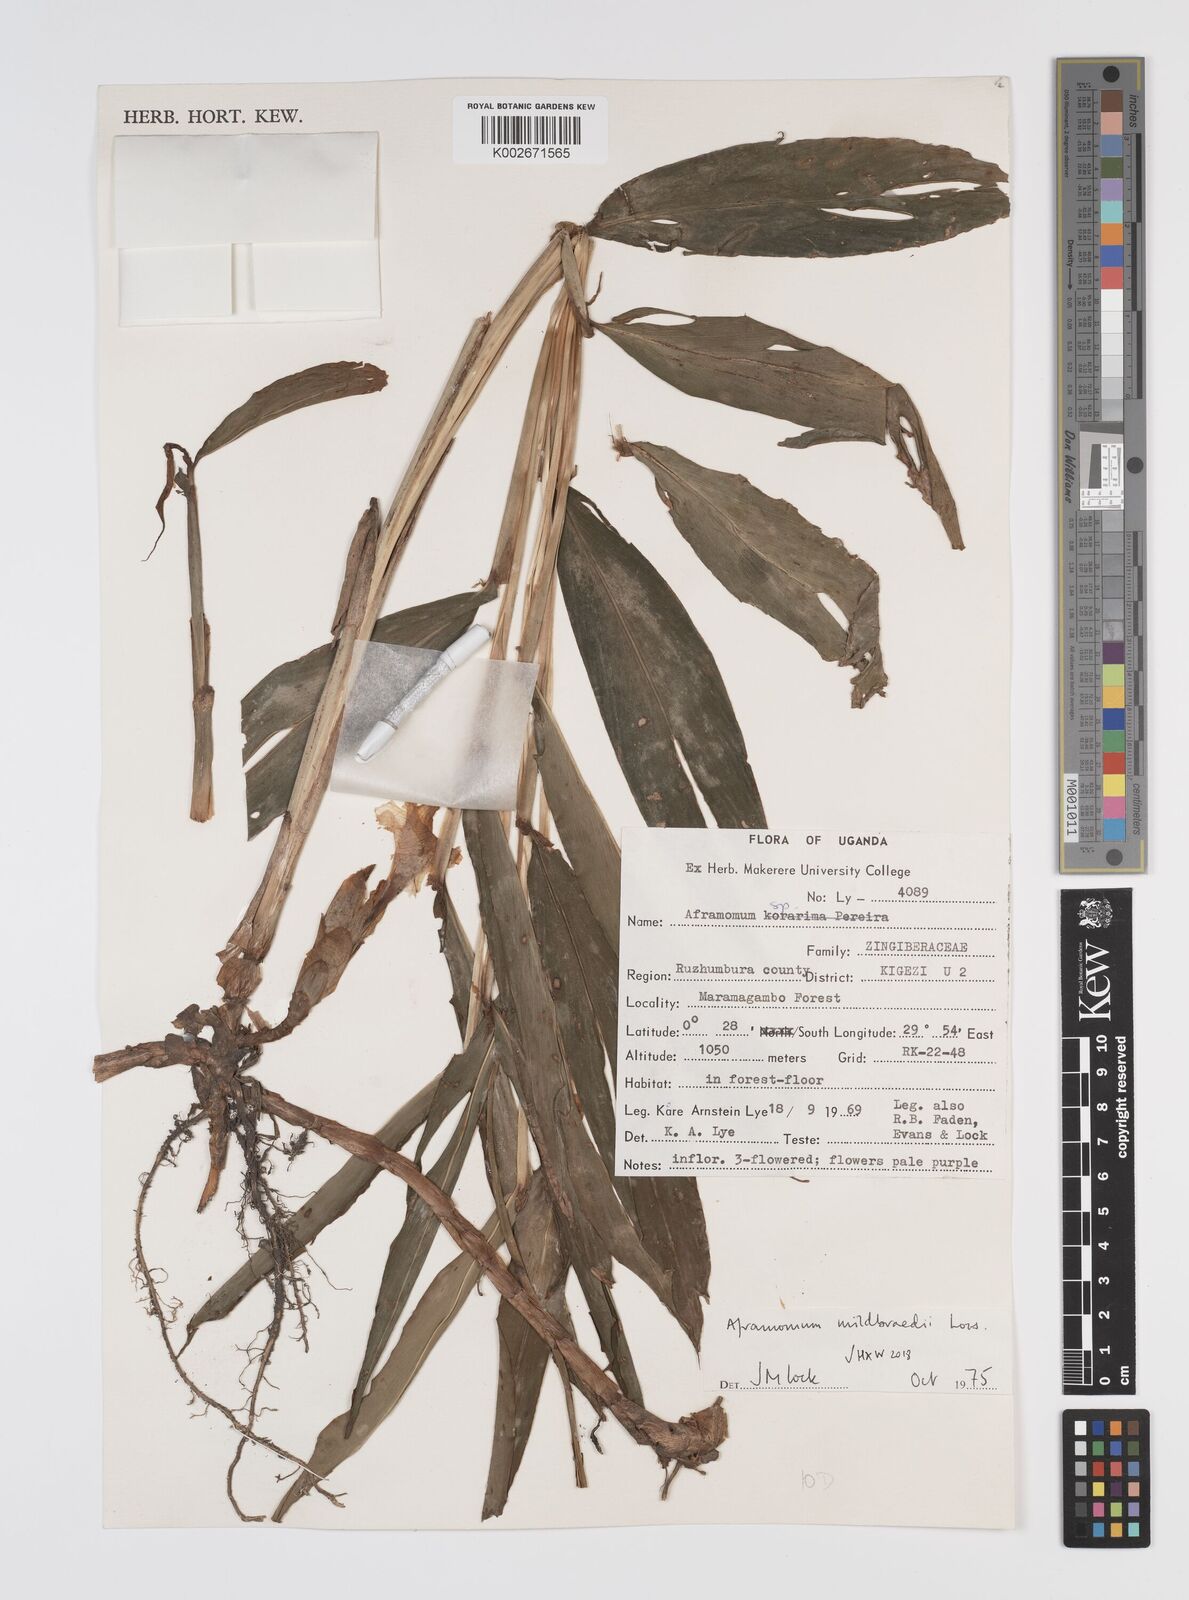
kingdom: Plantae
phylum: Tracheophyta
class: Liliopsida
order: Zingiberales
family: Zingiberaceae
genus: Aframomum
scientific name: Aframomum mildbraedii
